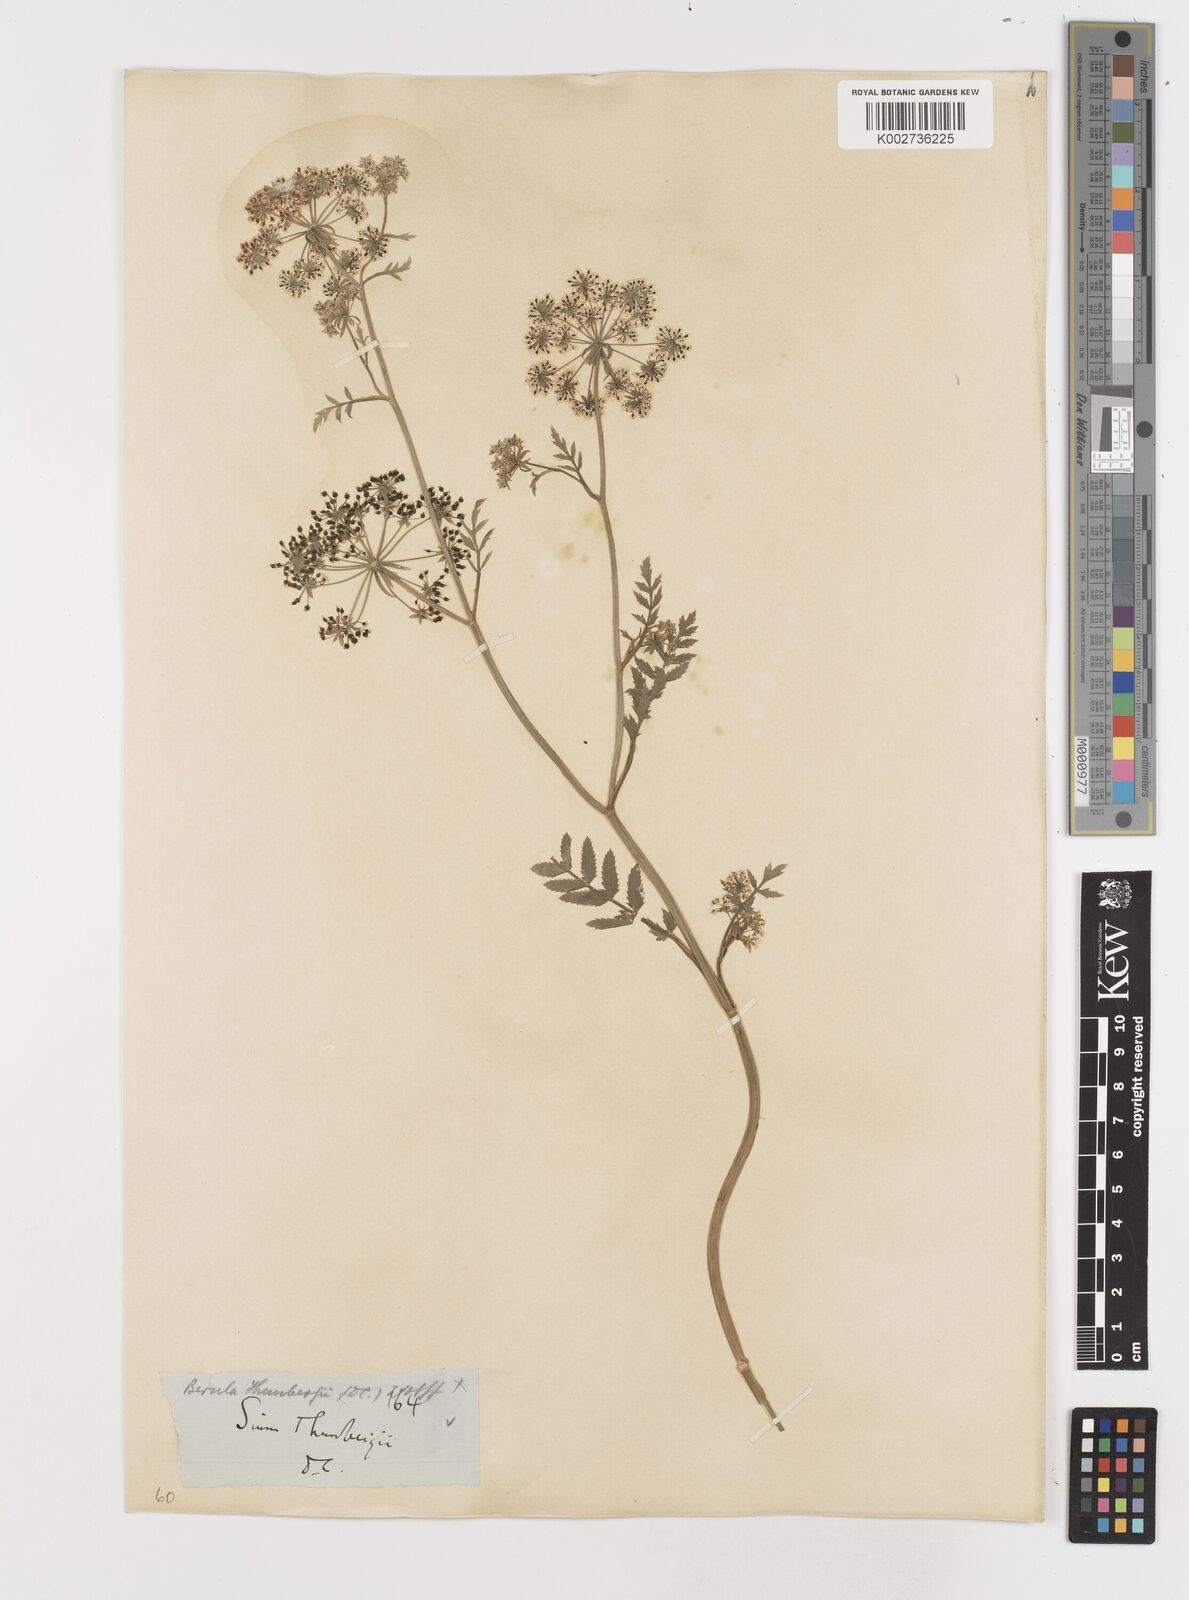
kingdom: Plantae
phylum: Tracheophyta
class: Magnoliopsida
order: Apiales
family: Apiaceae
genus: Berula
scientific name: Berula erecta
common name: Lesser water-parsnip
